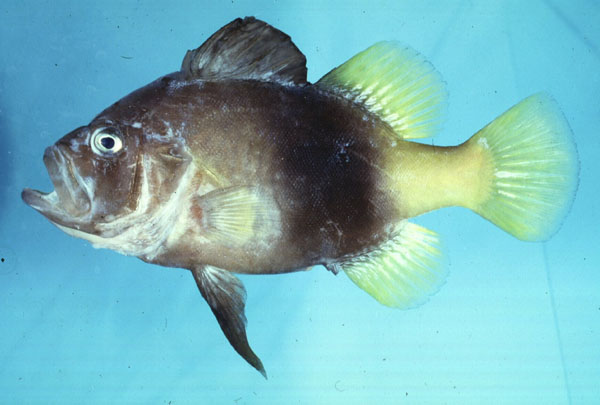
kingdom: Animalia
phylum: Chordata
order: Perciformes
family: Serranidae
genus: Diploprion
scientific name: Diploprion bifasciatum
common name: Barred soapfish
